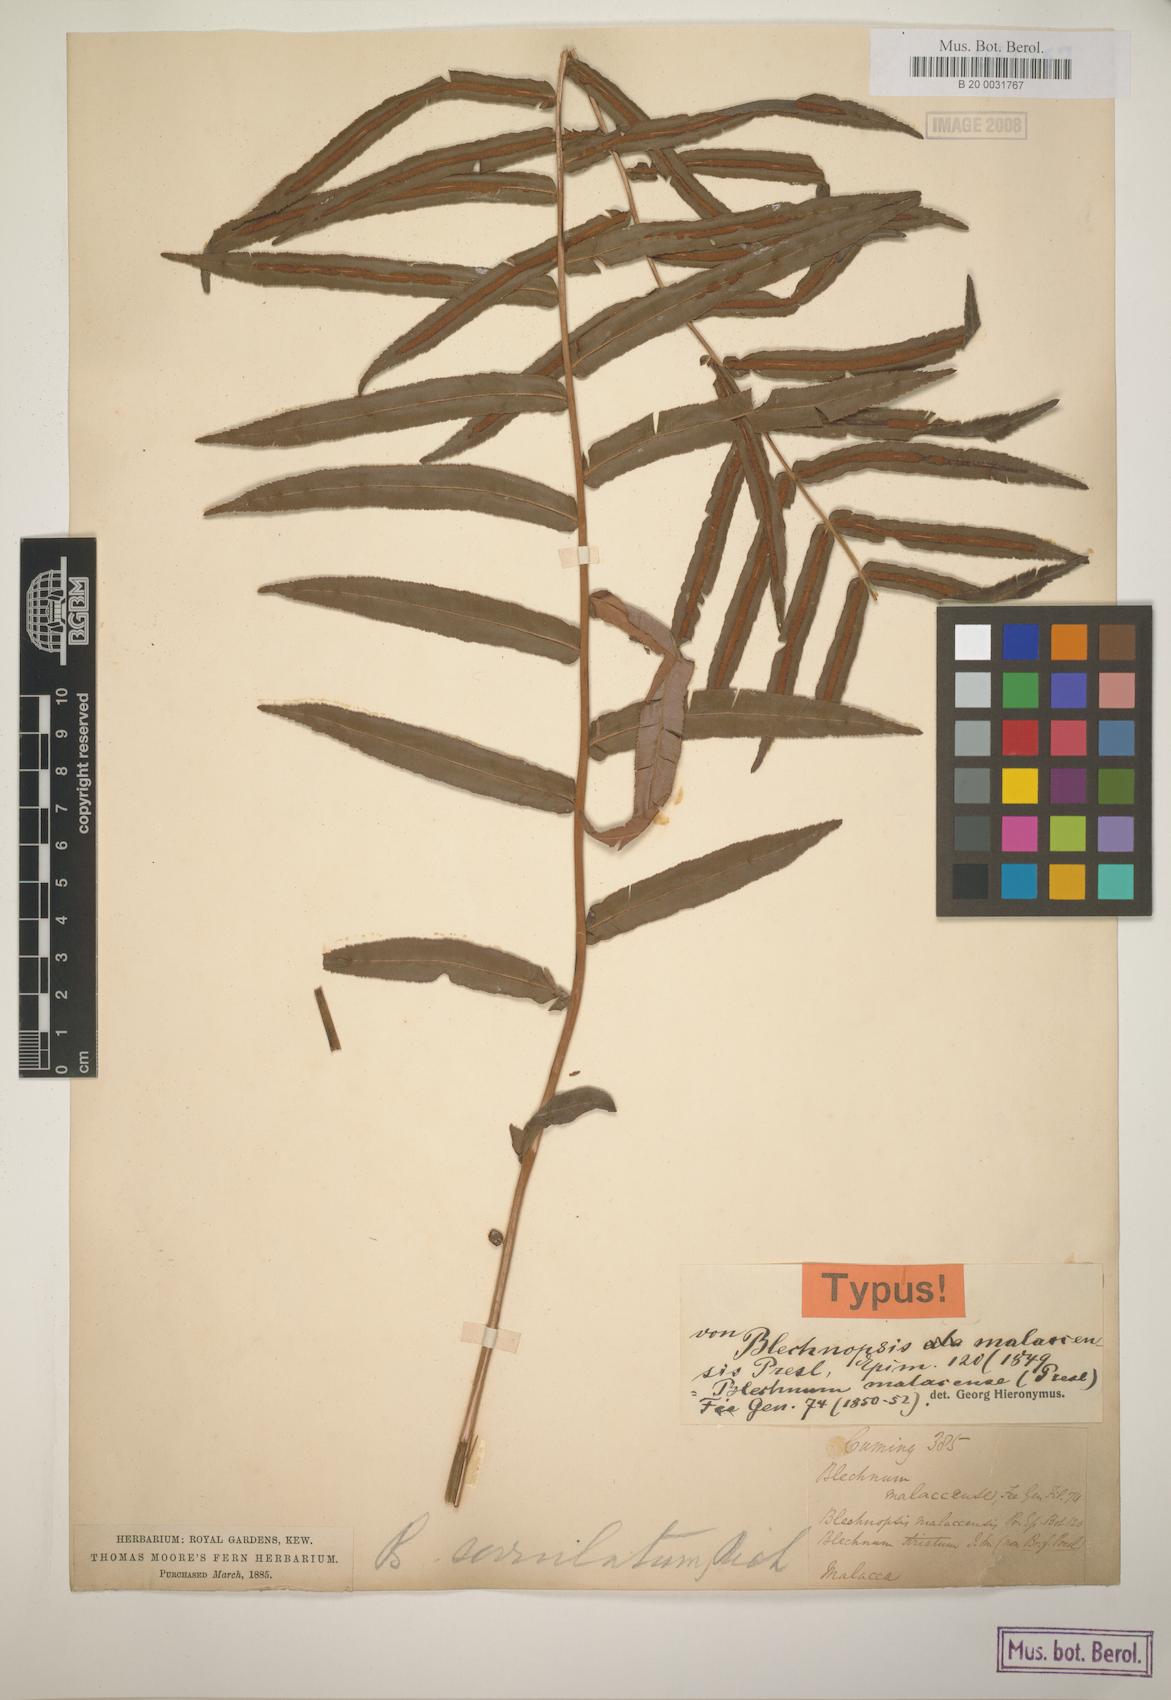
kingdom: Plantae
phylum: Tracheophyta
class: Polypodiopsida
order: Polypodiales
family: Blechnaceae
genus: Telmatoblechnum
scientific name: Telmatoblechnum indicum
